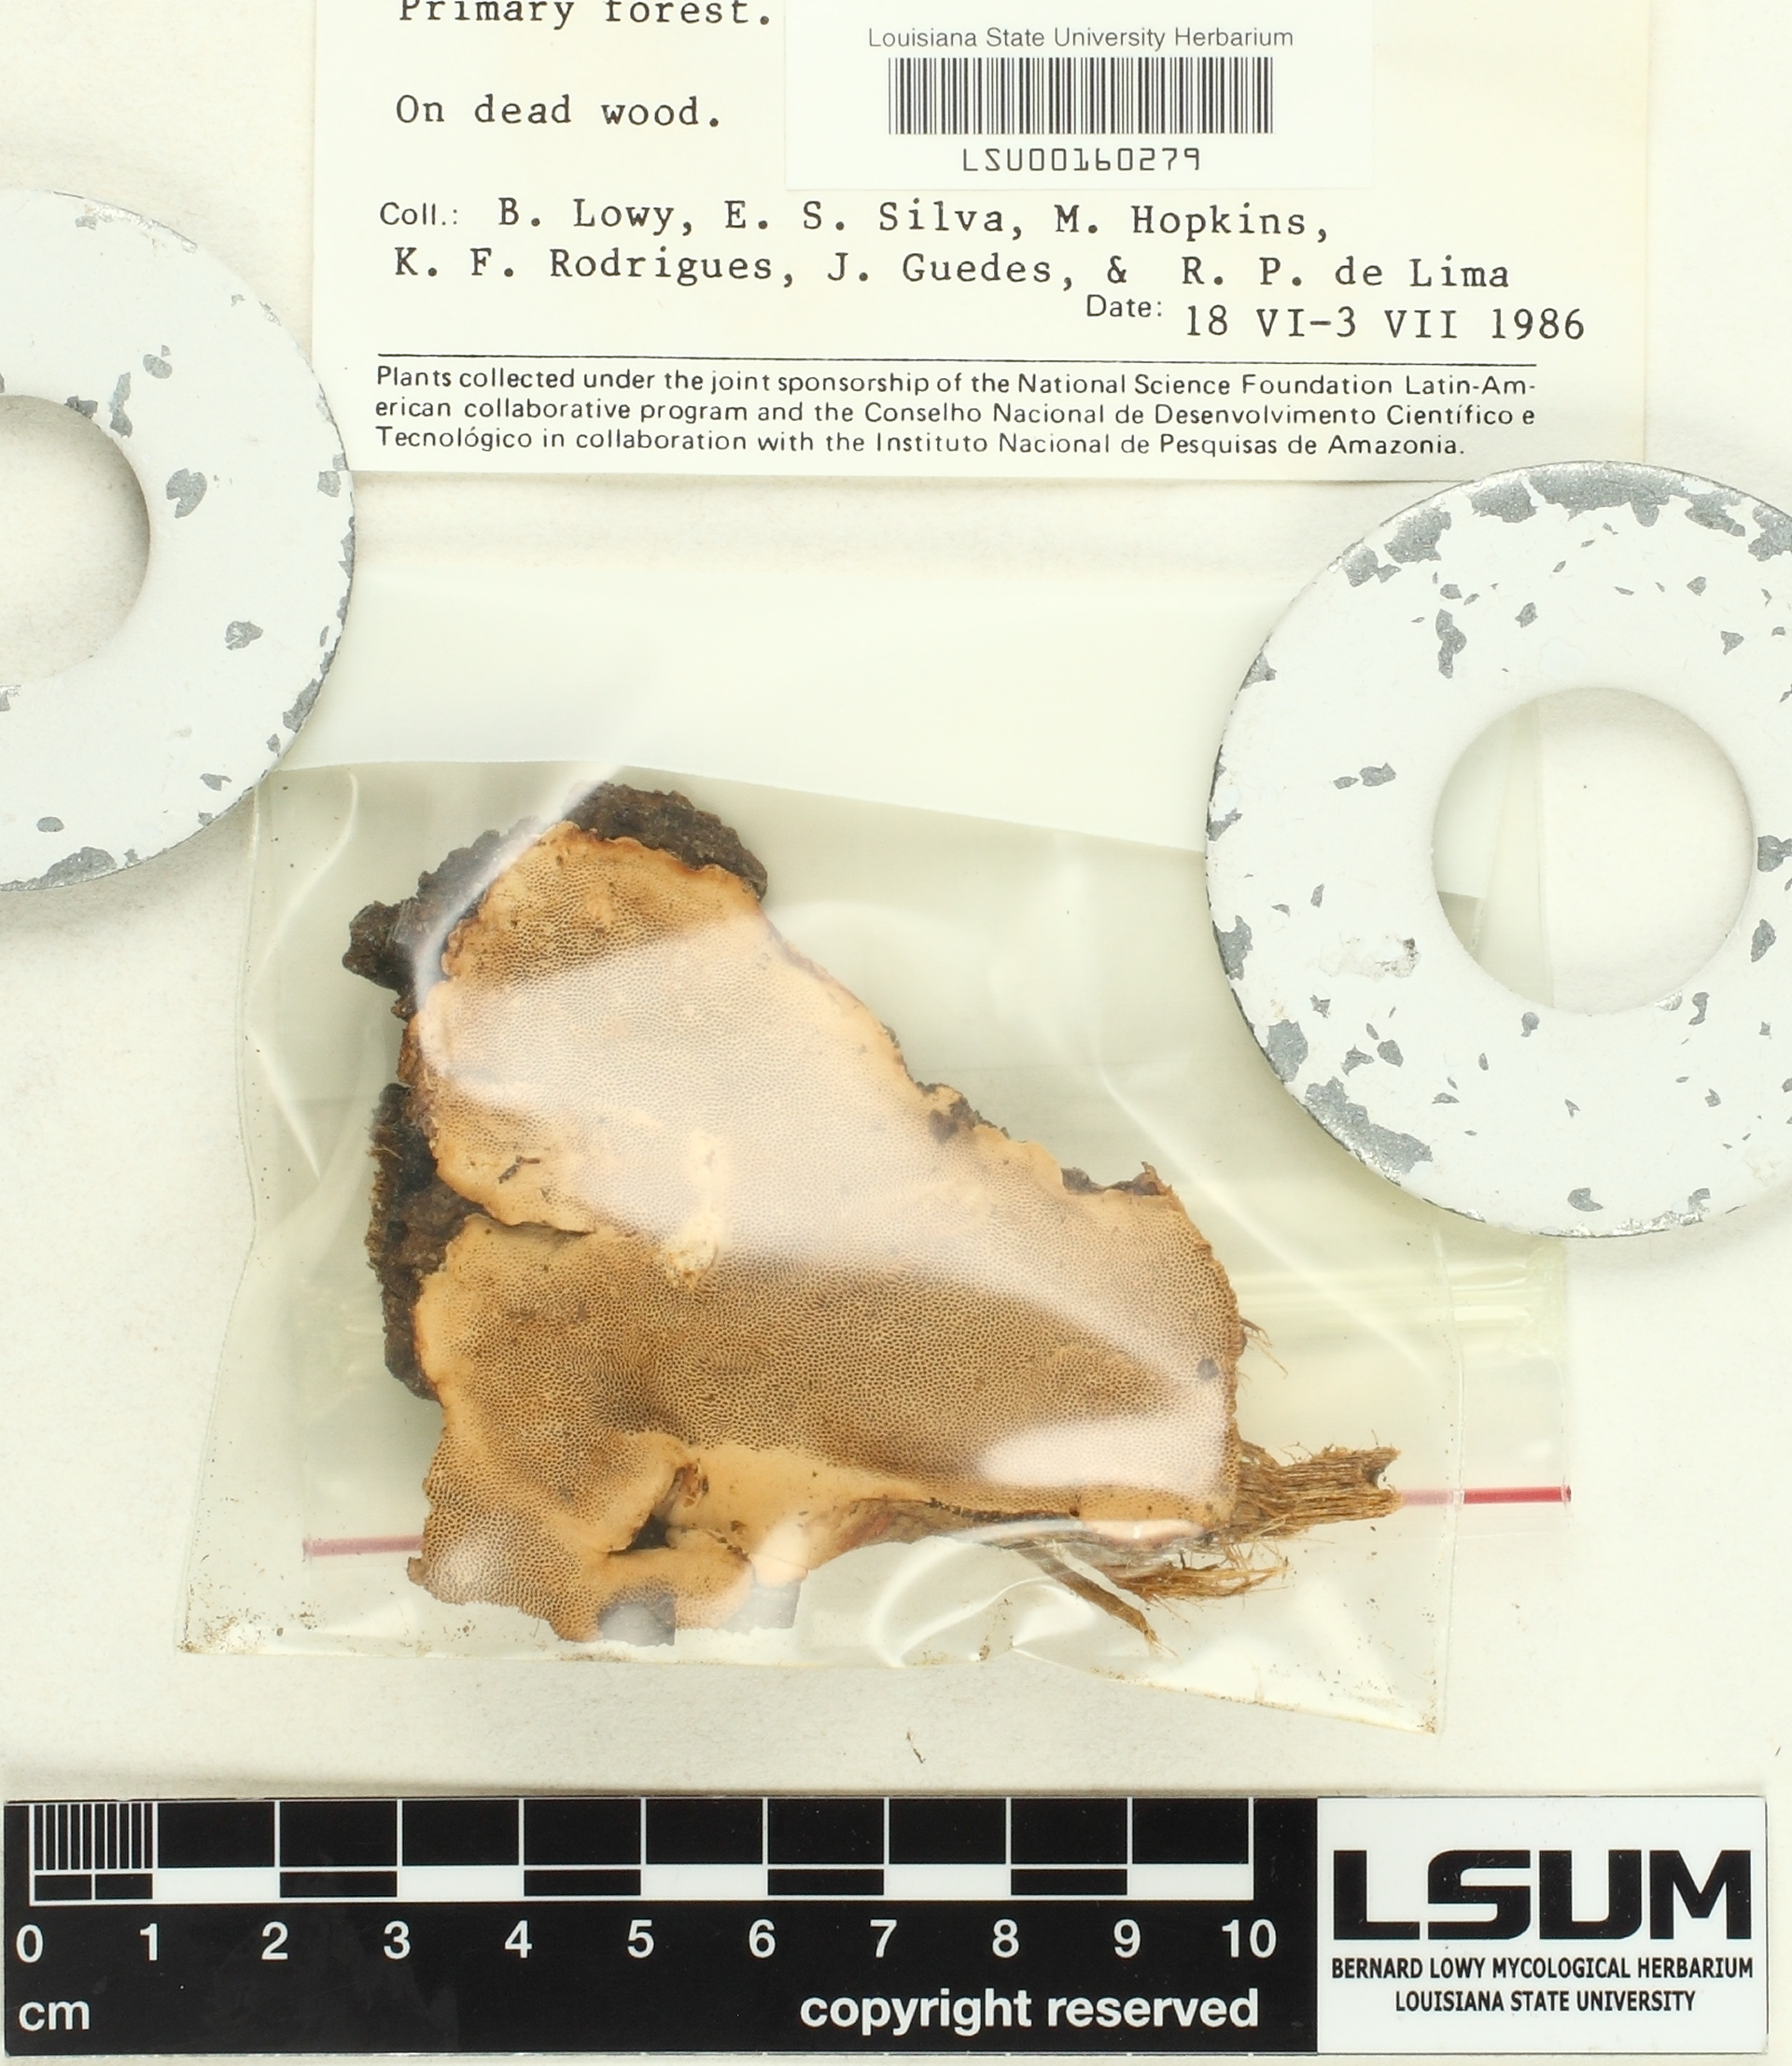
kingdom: Fungi
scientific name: Fungi
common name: Fungi
